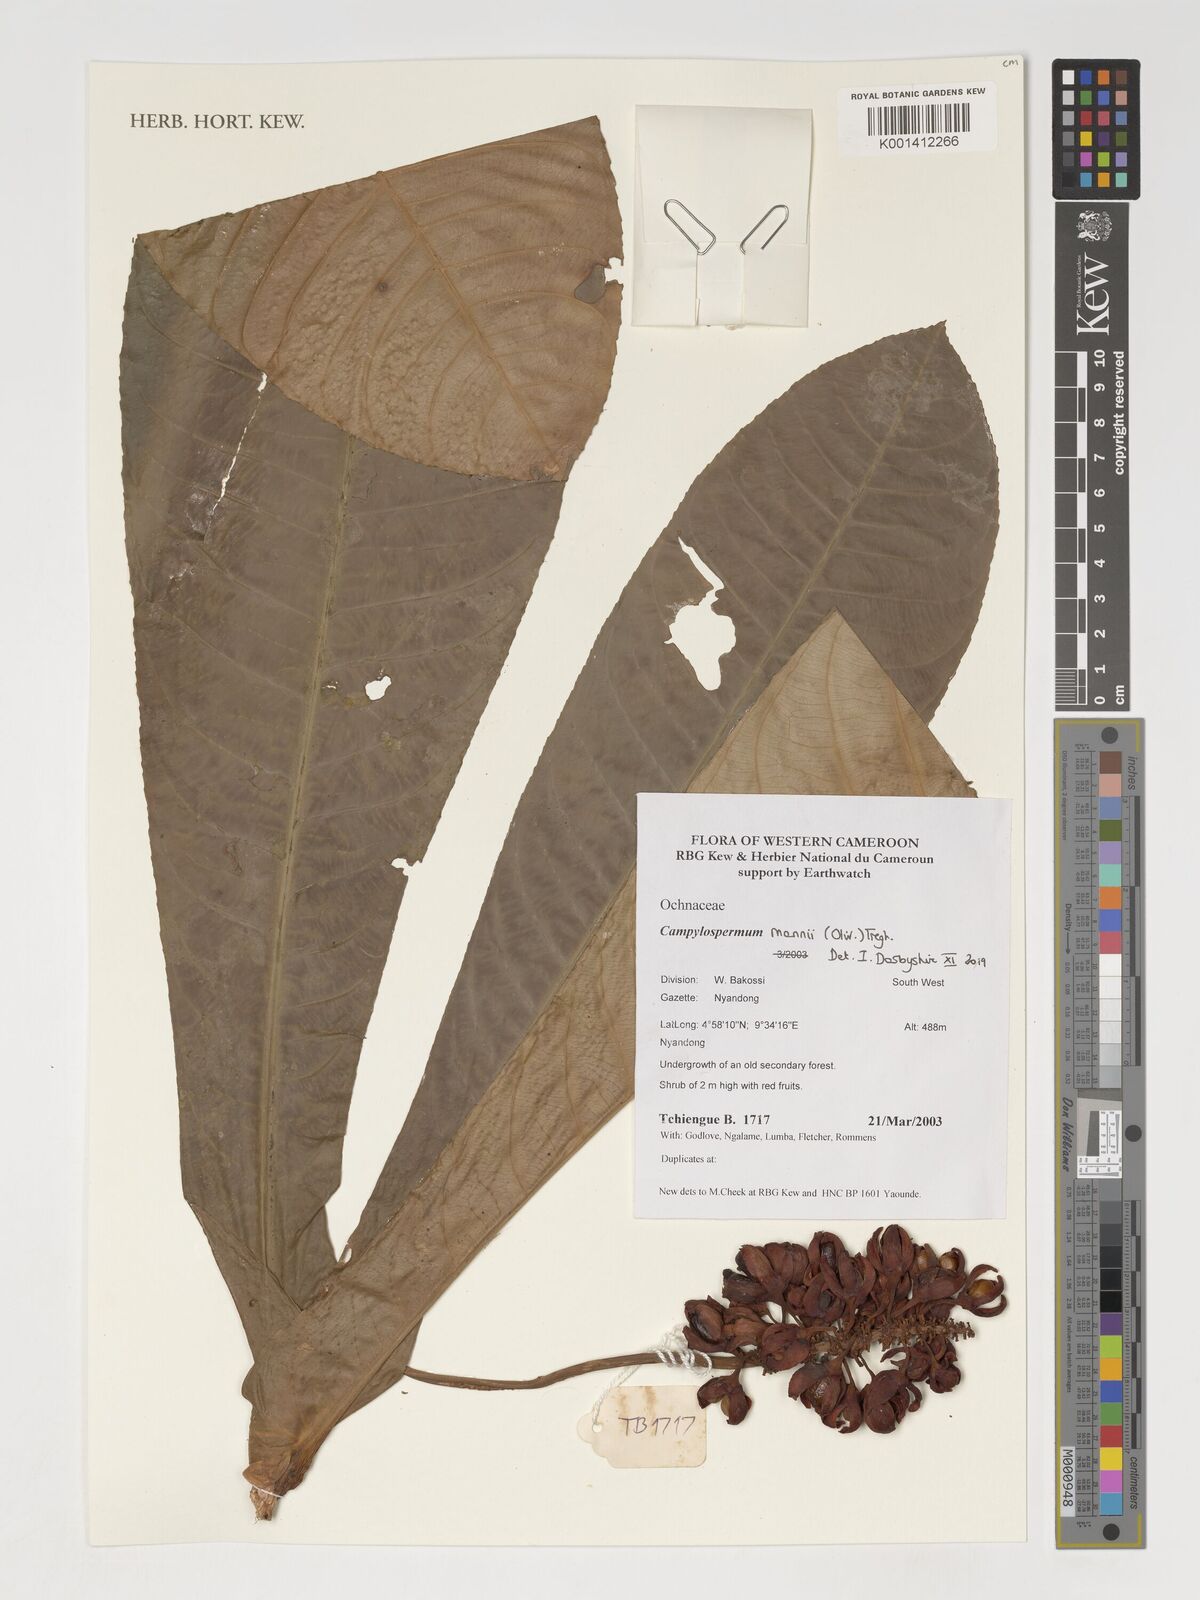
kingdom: Plantae
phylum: Tracheophyta
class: Magnoliopsida
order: Malpighiales
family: Ochnaceae
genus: Campylospermum
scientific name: Campylospermum mannii
